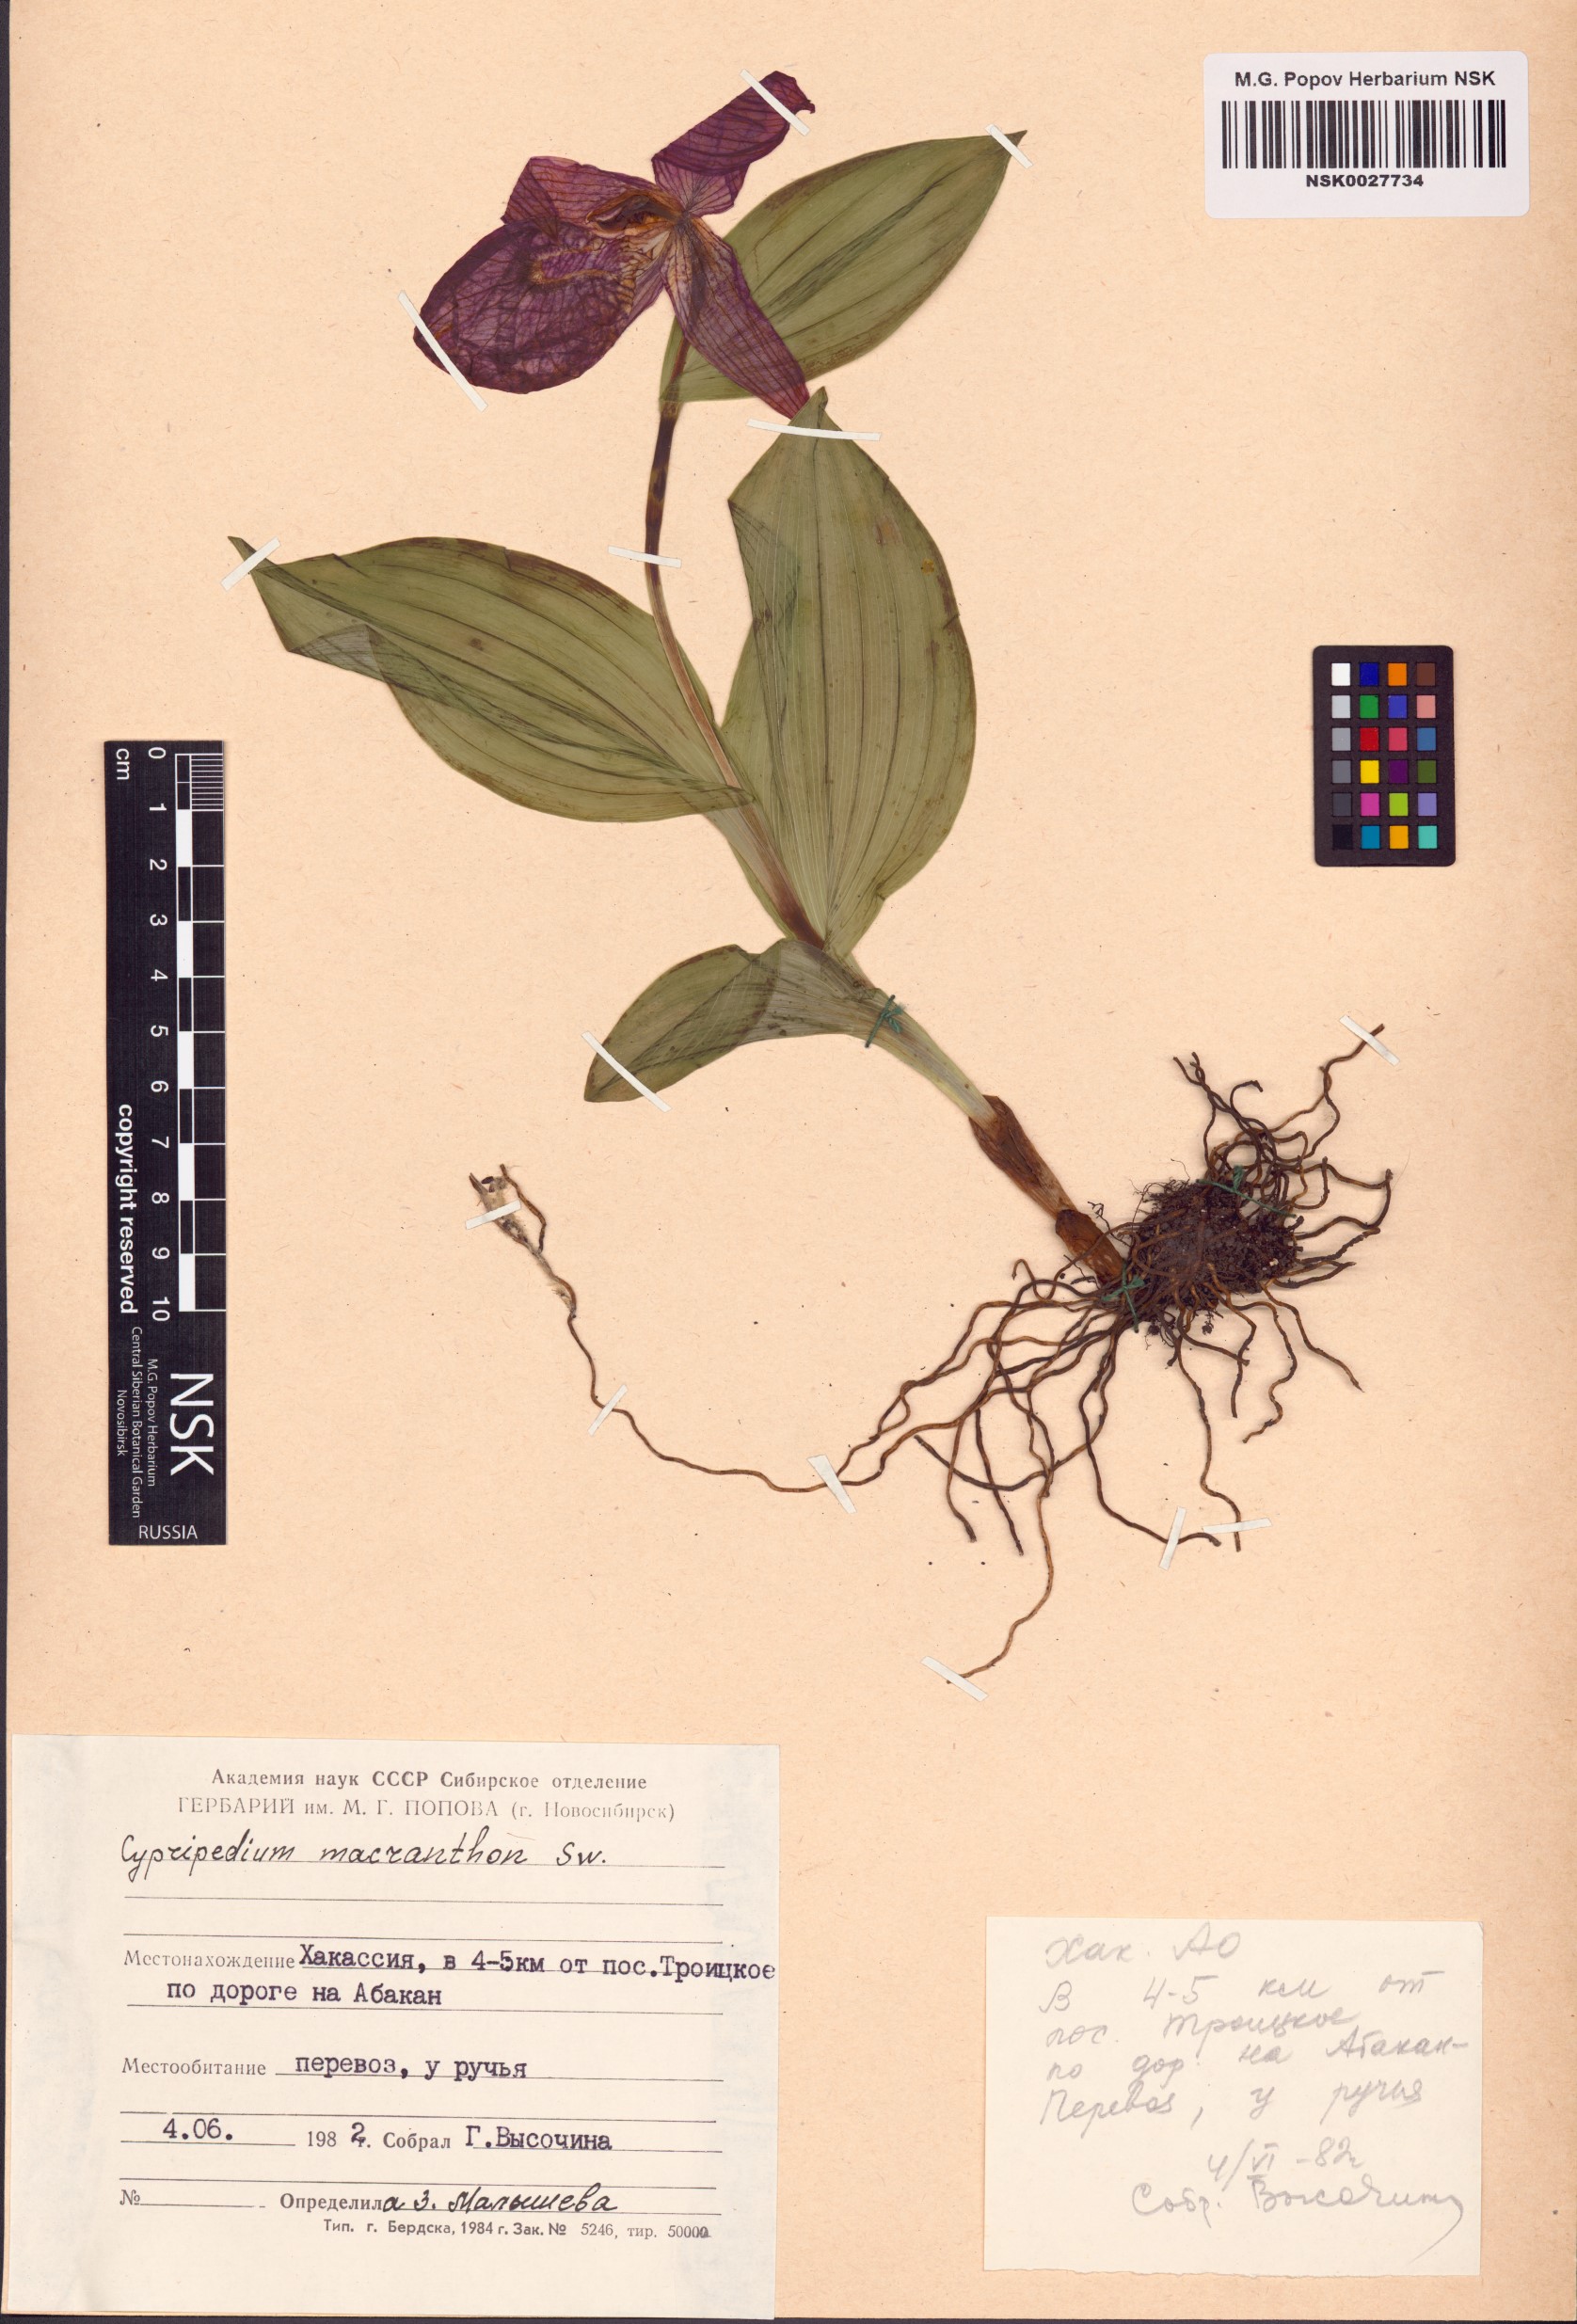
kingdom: Plantae
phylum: Tracheophyta
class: Liliopsida
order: Asparagales
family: Orchidaceae
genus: Cypripedium
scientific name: Cypripedium macranthos
